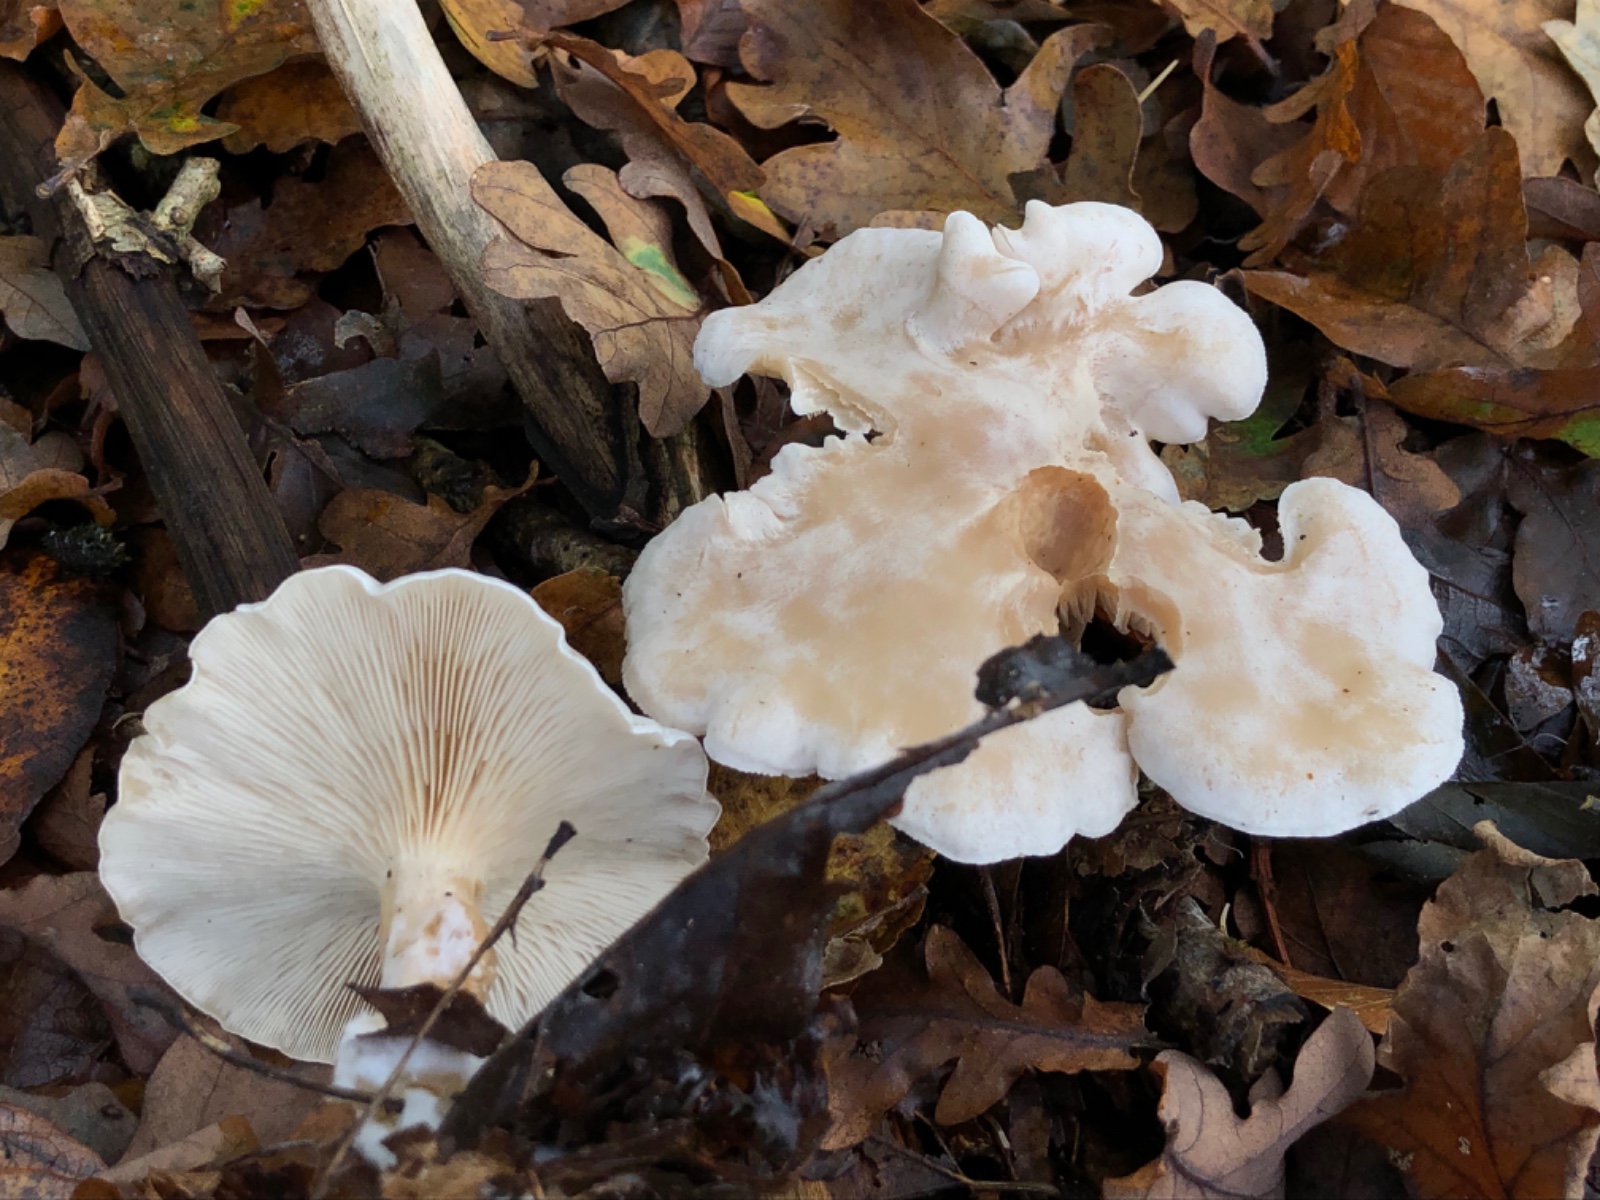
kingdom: Fungi
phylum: Basidiomycota
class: Agaricomycetes
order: Agaricales
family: Tricholomataceae
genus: Clitocybe
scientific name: Clitocybe phyllophila
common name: løv-tragthat
